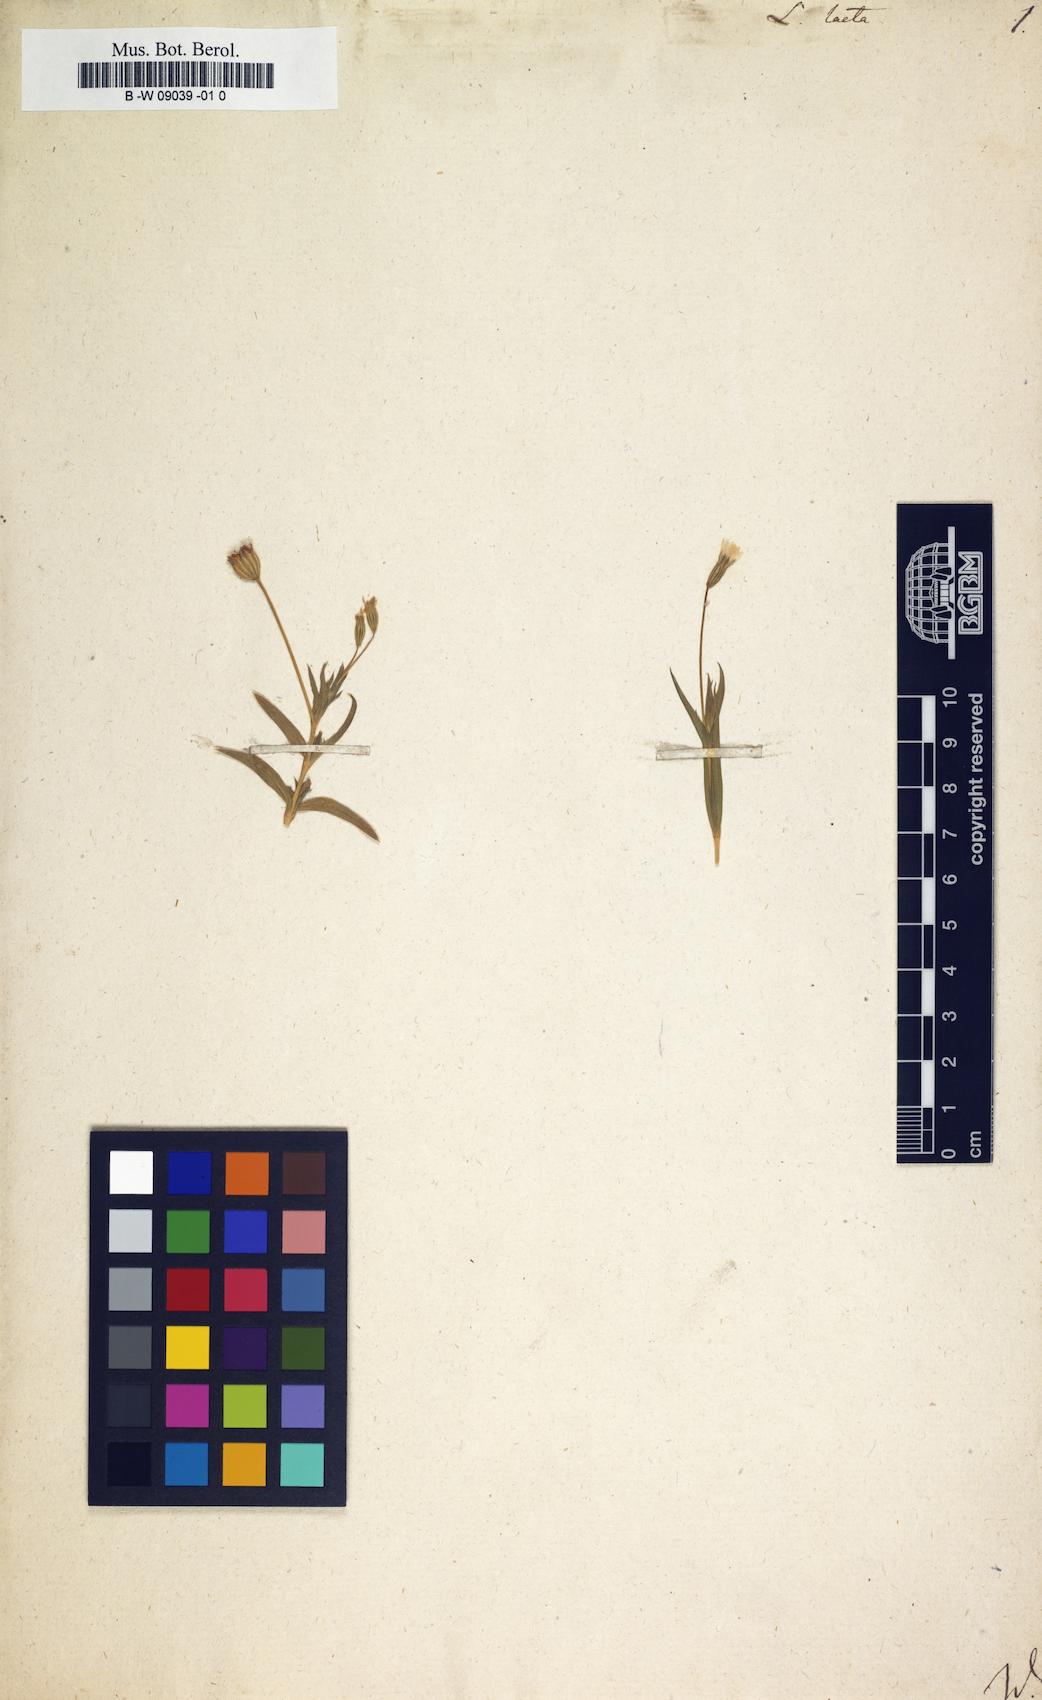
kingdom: Plantae
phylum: Tracheophyta
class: Magnoliopsida
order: Caryophyllales
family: Caryophyllaceae
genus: Eudianthe
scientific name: Eudianthe laeta
